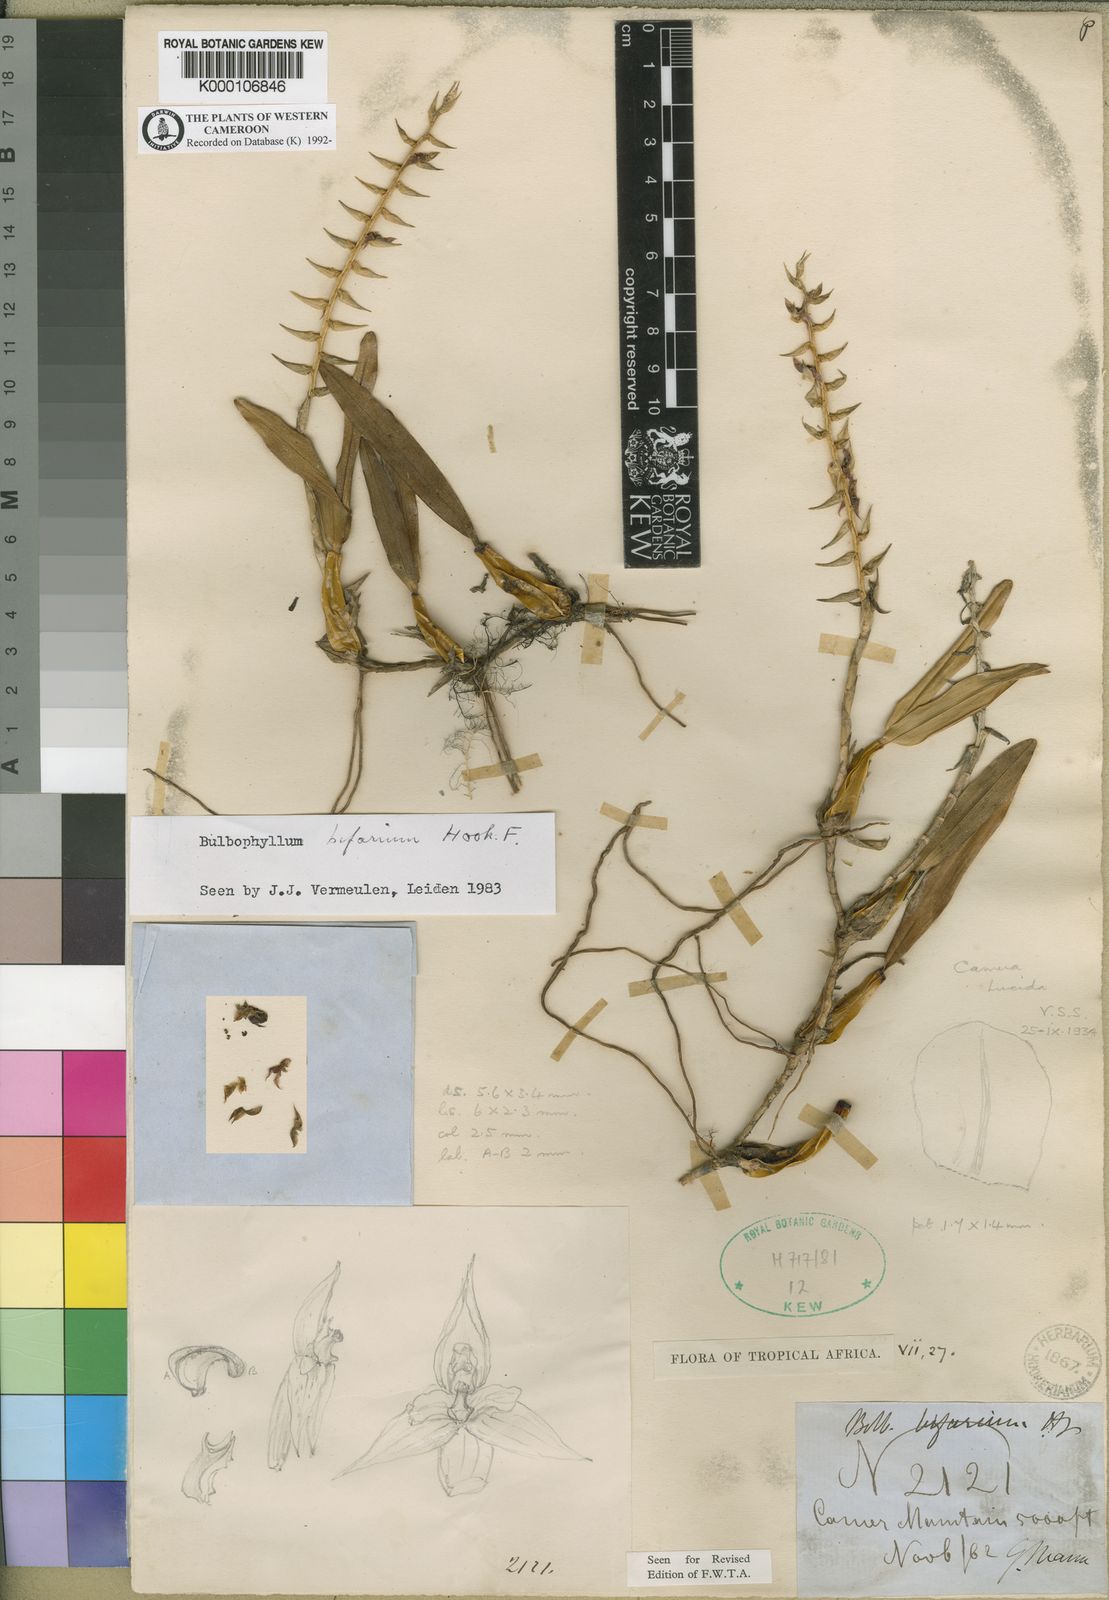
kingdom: Plantae
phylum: Tracheophyta
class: Liliopsida
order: Asparagales
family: Orchidaceae
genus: Bulbophyllum
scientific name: Bulbophyllum bifarium
